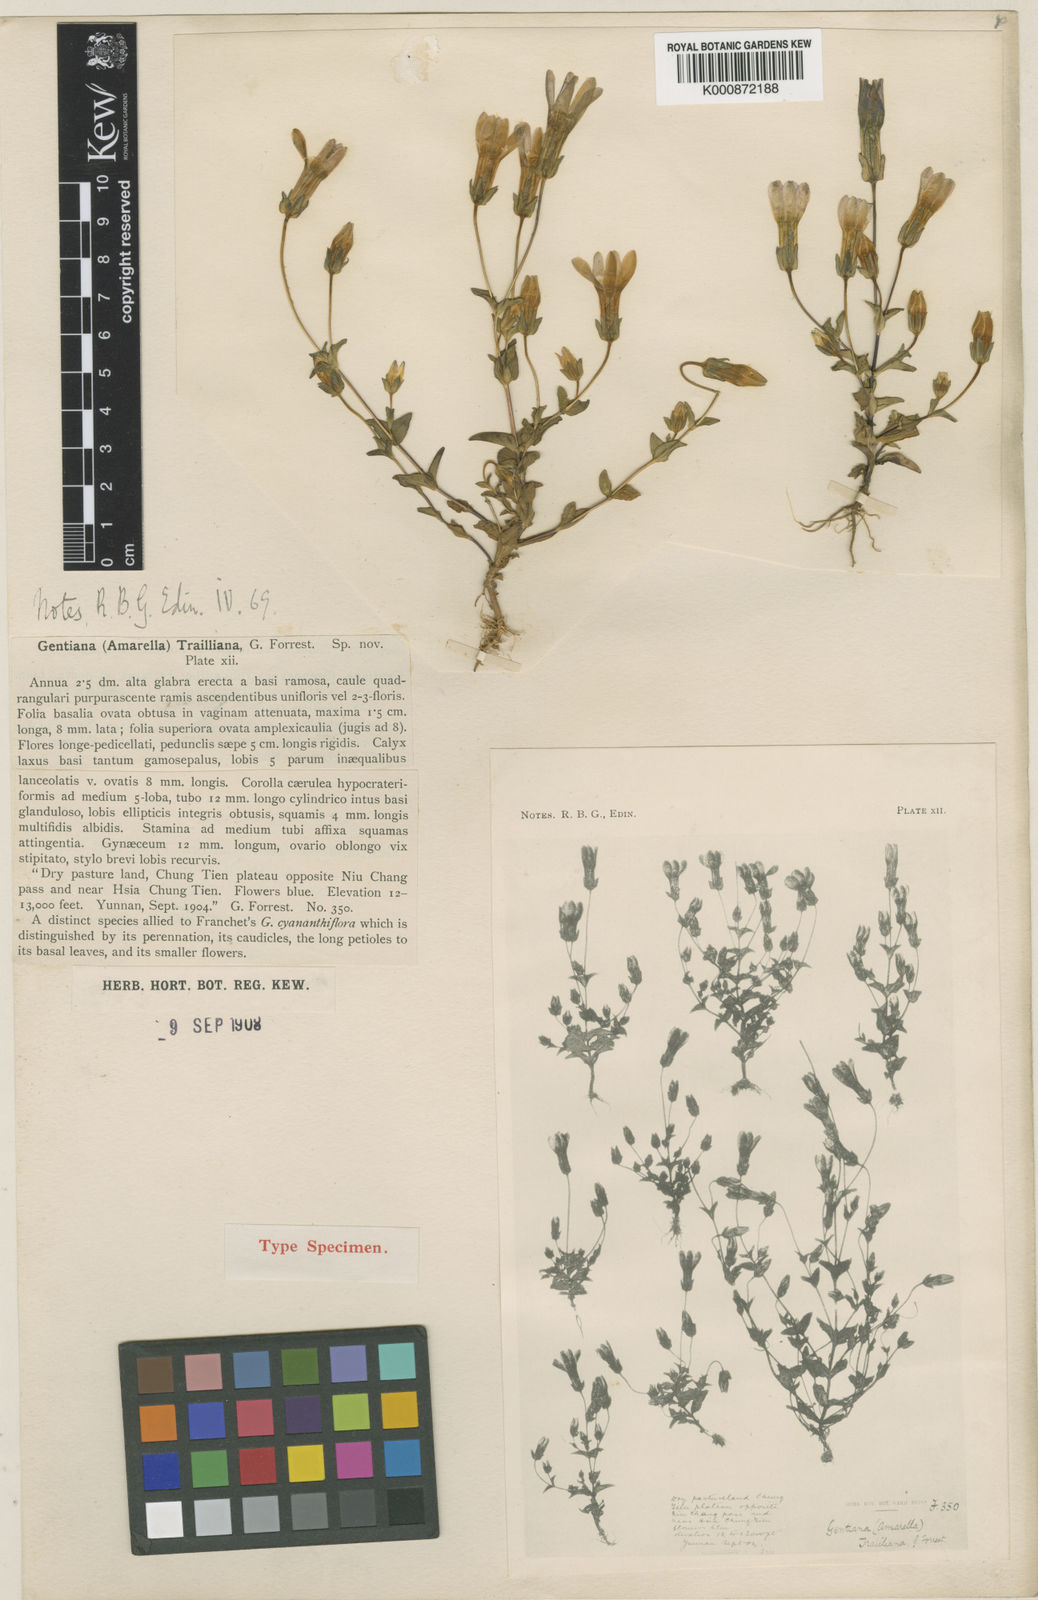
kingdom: Plantae
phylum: Tracheophyta
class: Magnoliopsida
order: Gentianales
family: Gentianaceae
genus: Gentianella
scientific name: Gentianella
